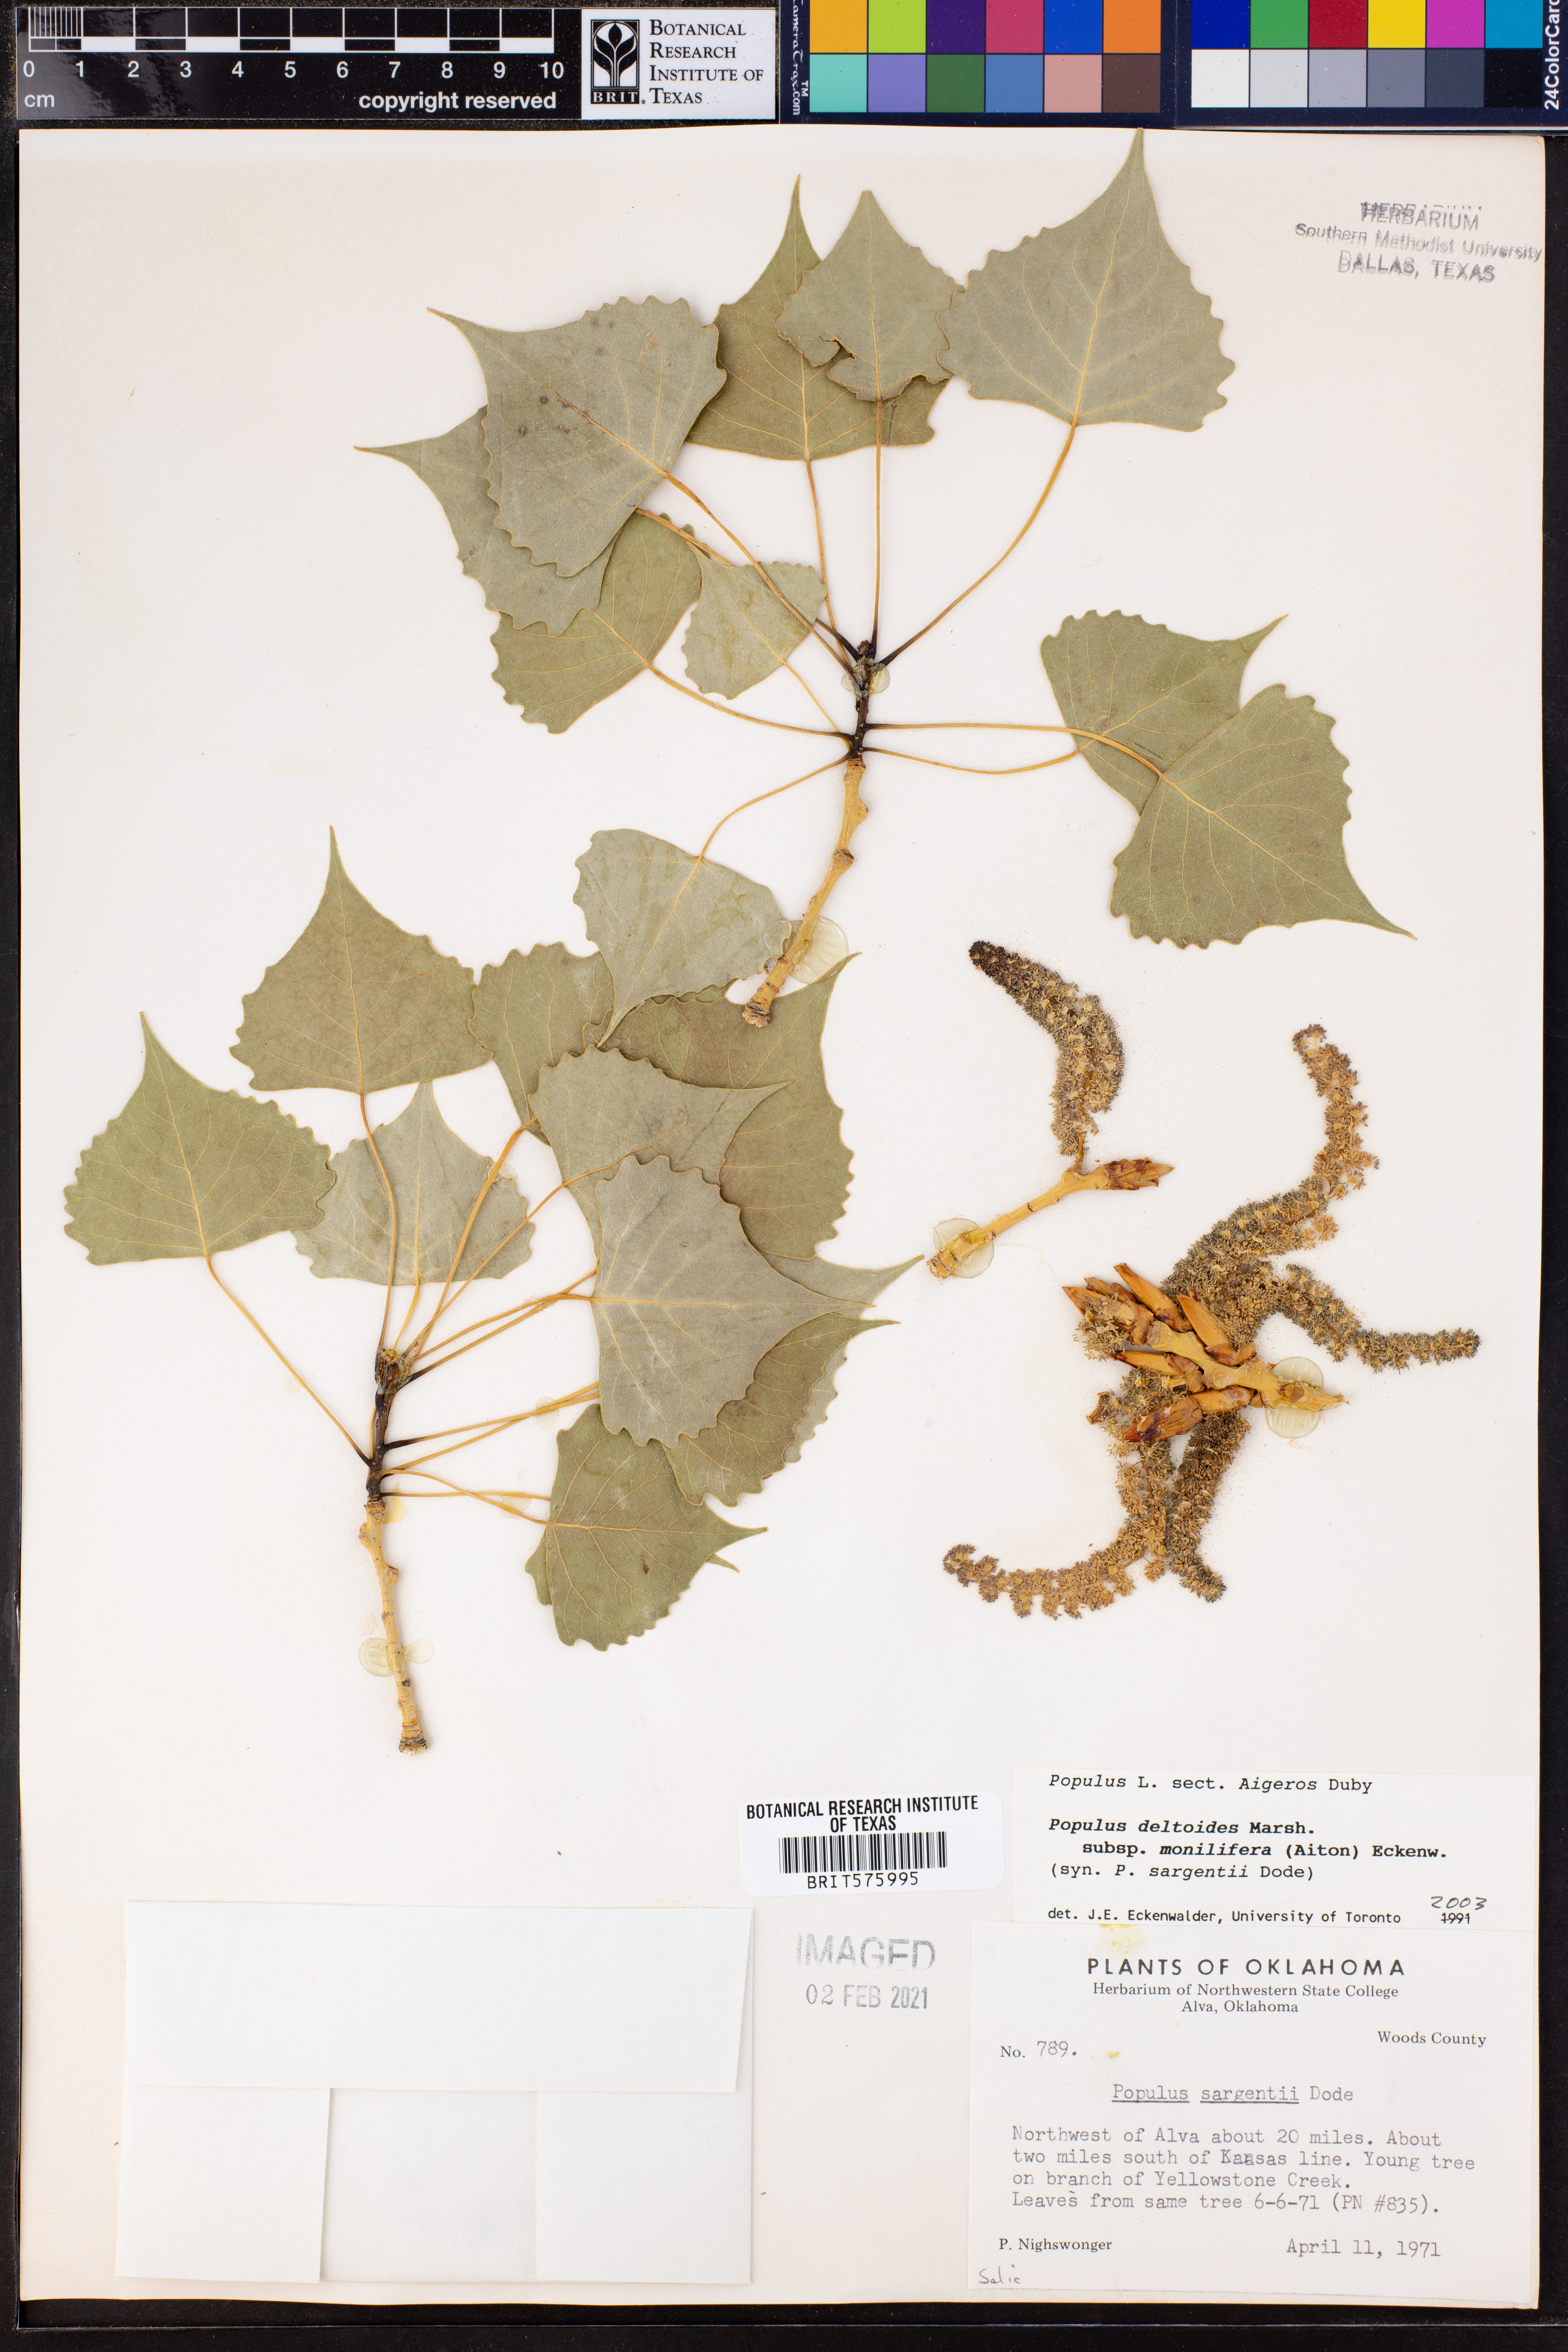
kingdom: Plantae
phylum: Tracheophyta
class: Magnoliopsida
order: Malpighiales
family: Salicaceae
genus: Populus
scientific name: Populus deltoides
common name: Eastern cottonwood
